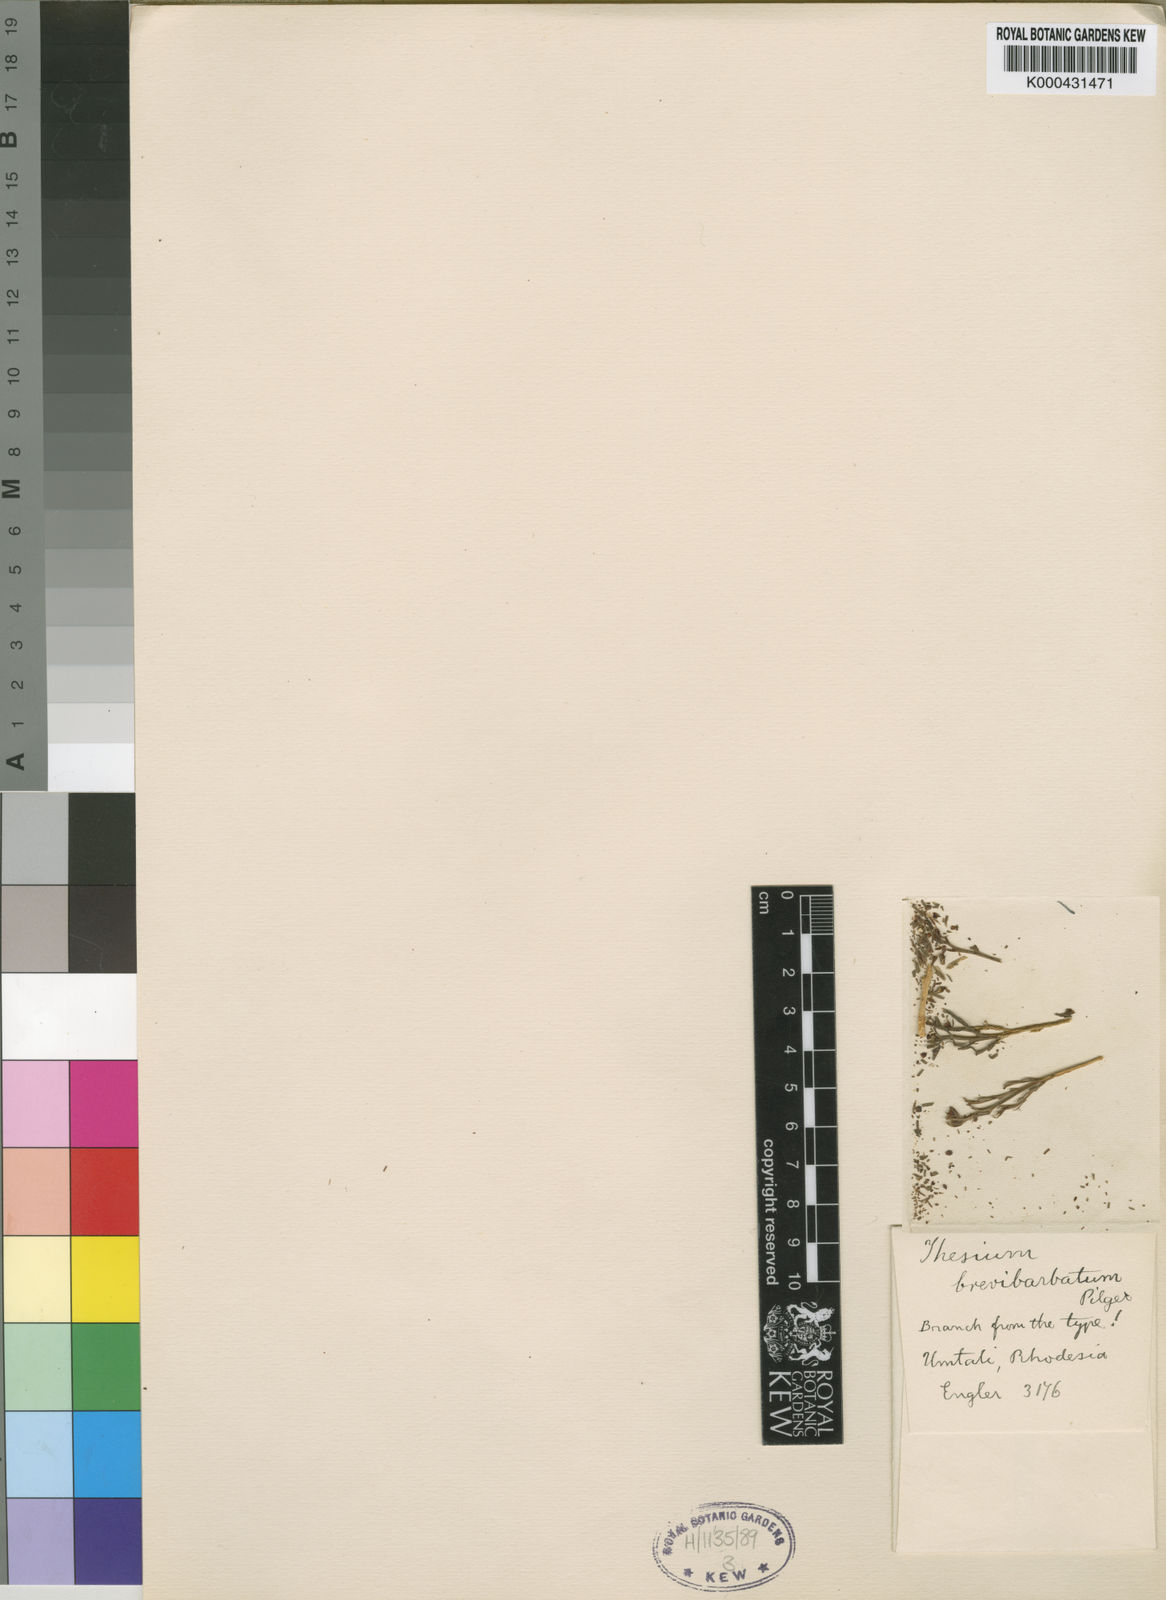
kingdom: Plantae
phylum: Tracheophyta
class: Magnoliopsida
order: Santalales
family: Thesiaceae
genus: Thesium
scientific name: Thesium brevibarbatum
